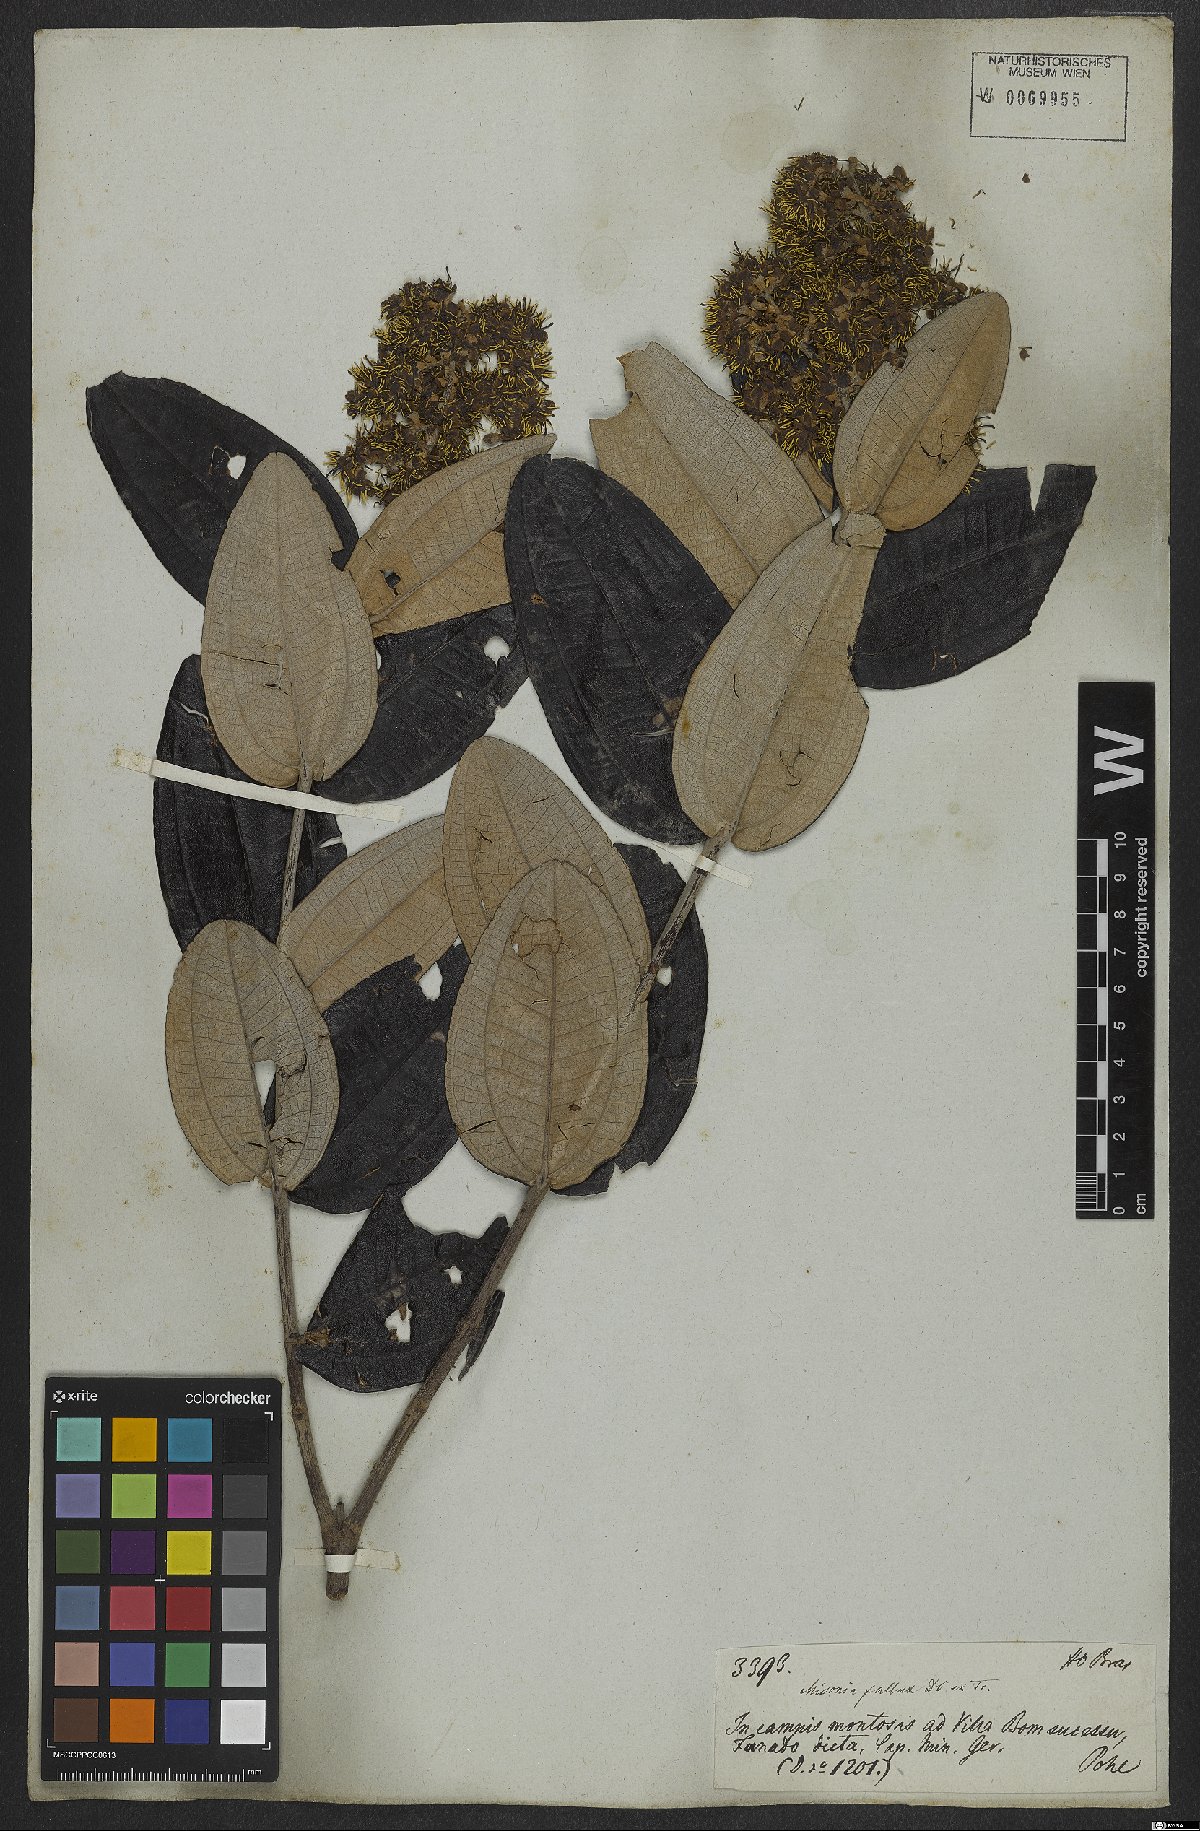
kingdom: Plantae
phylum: Tracheophyta
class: Magnoliopsida
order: Myrtales
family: Melastomataceae
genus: Miconia
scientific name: Miconia fallax
